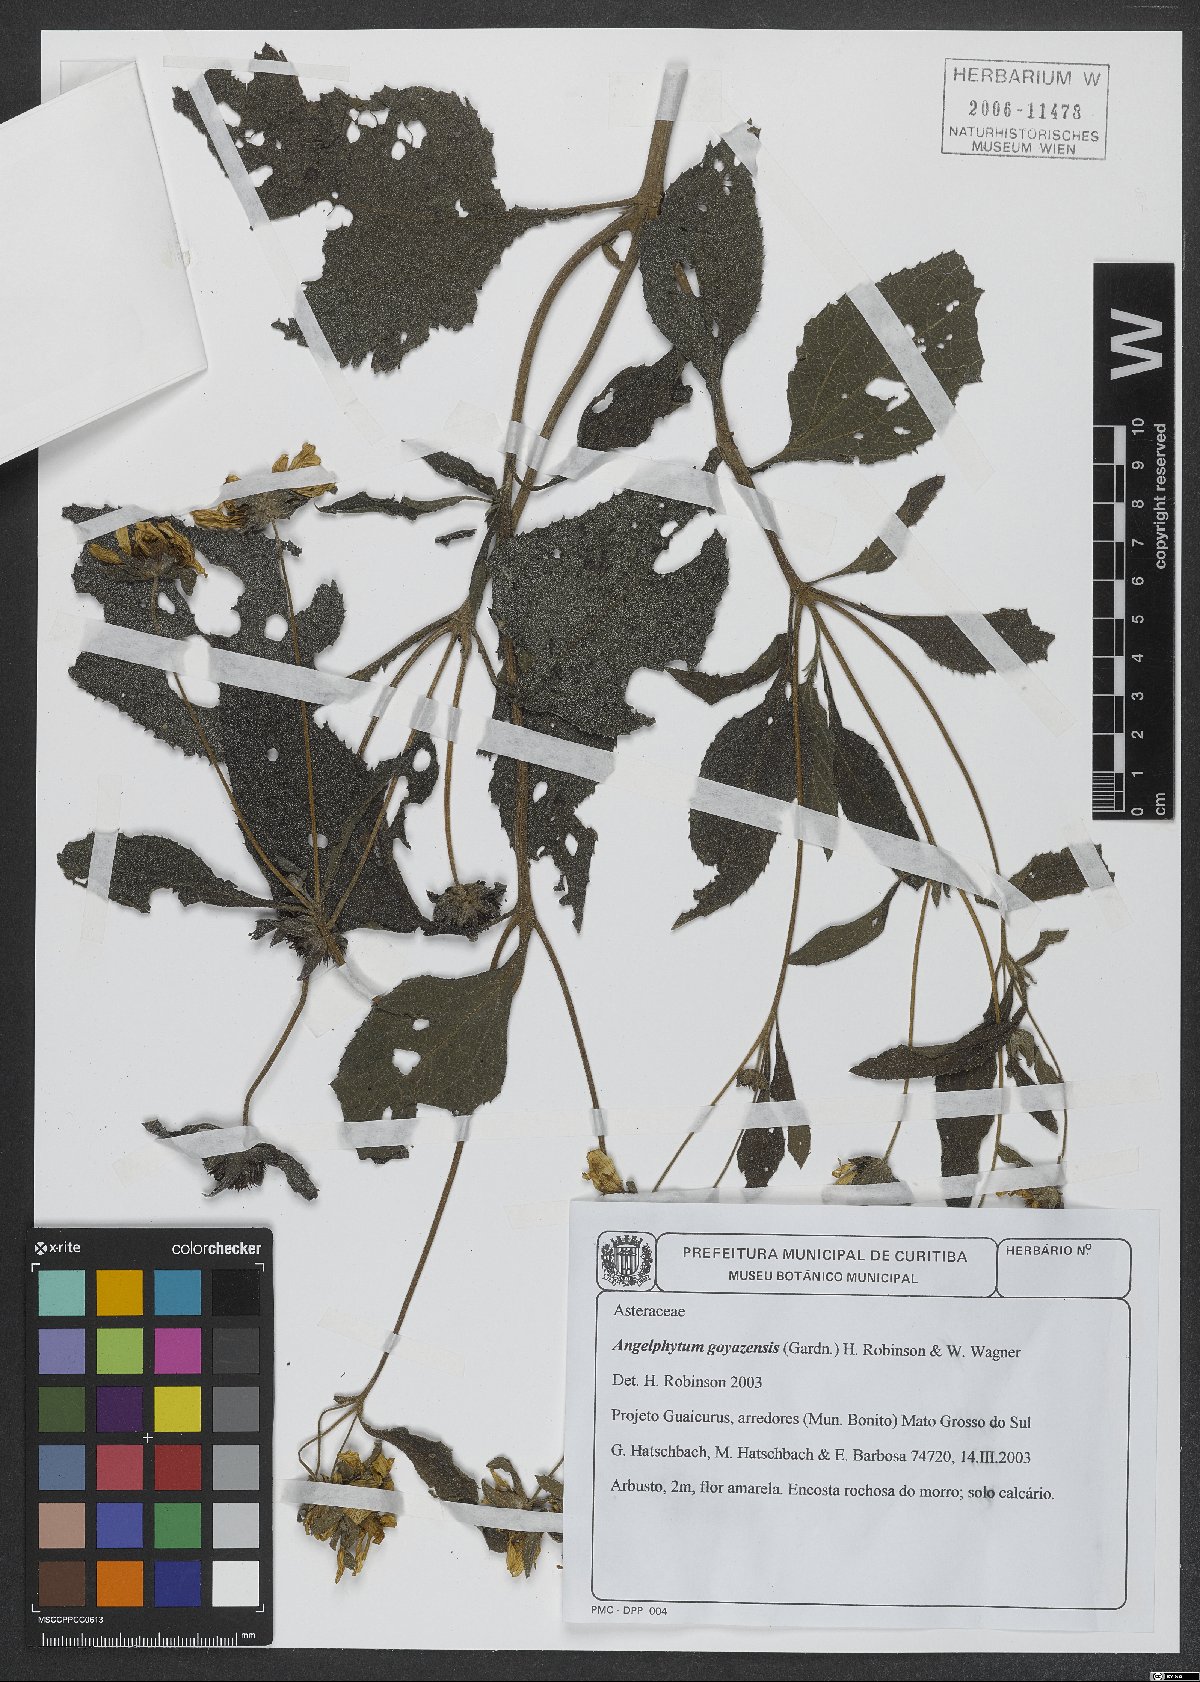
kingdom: Plantae
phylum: Tracheophyta
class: Magnoliopsida
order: Asterales
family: Asteraceae
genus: Dimerostemma
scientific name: Dimerostemma goyazense
